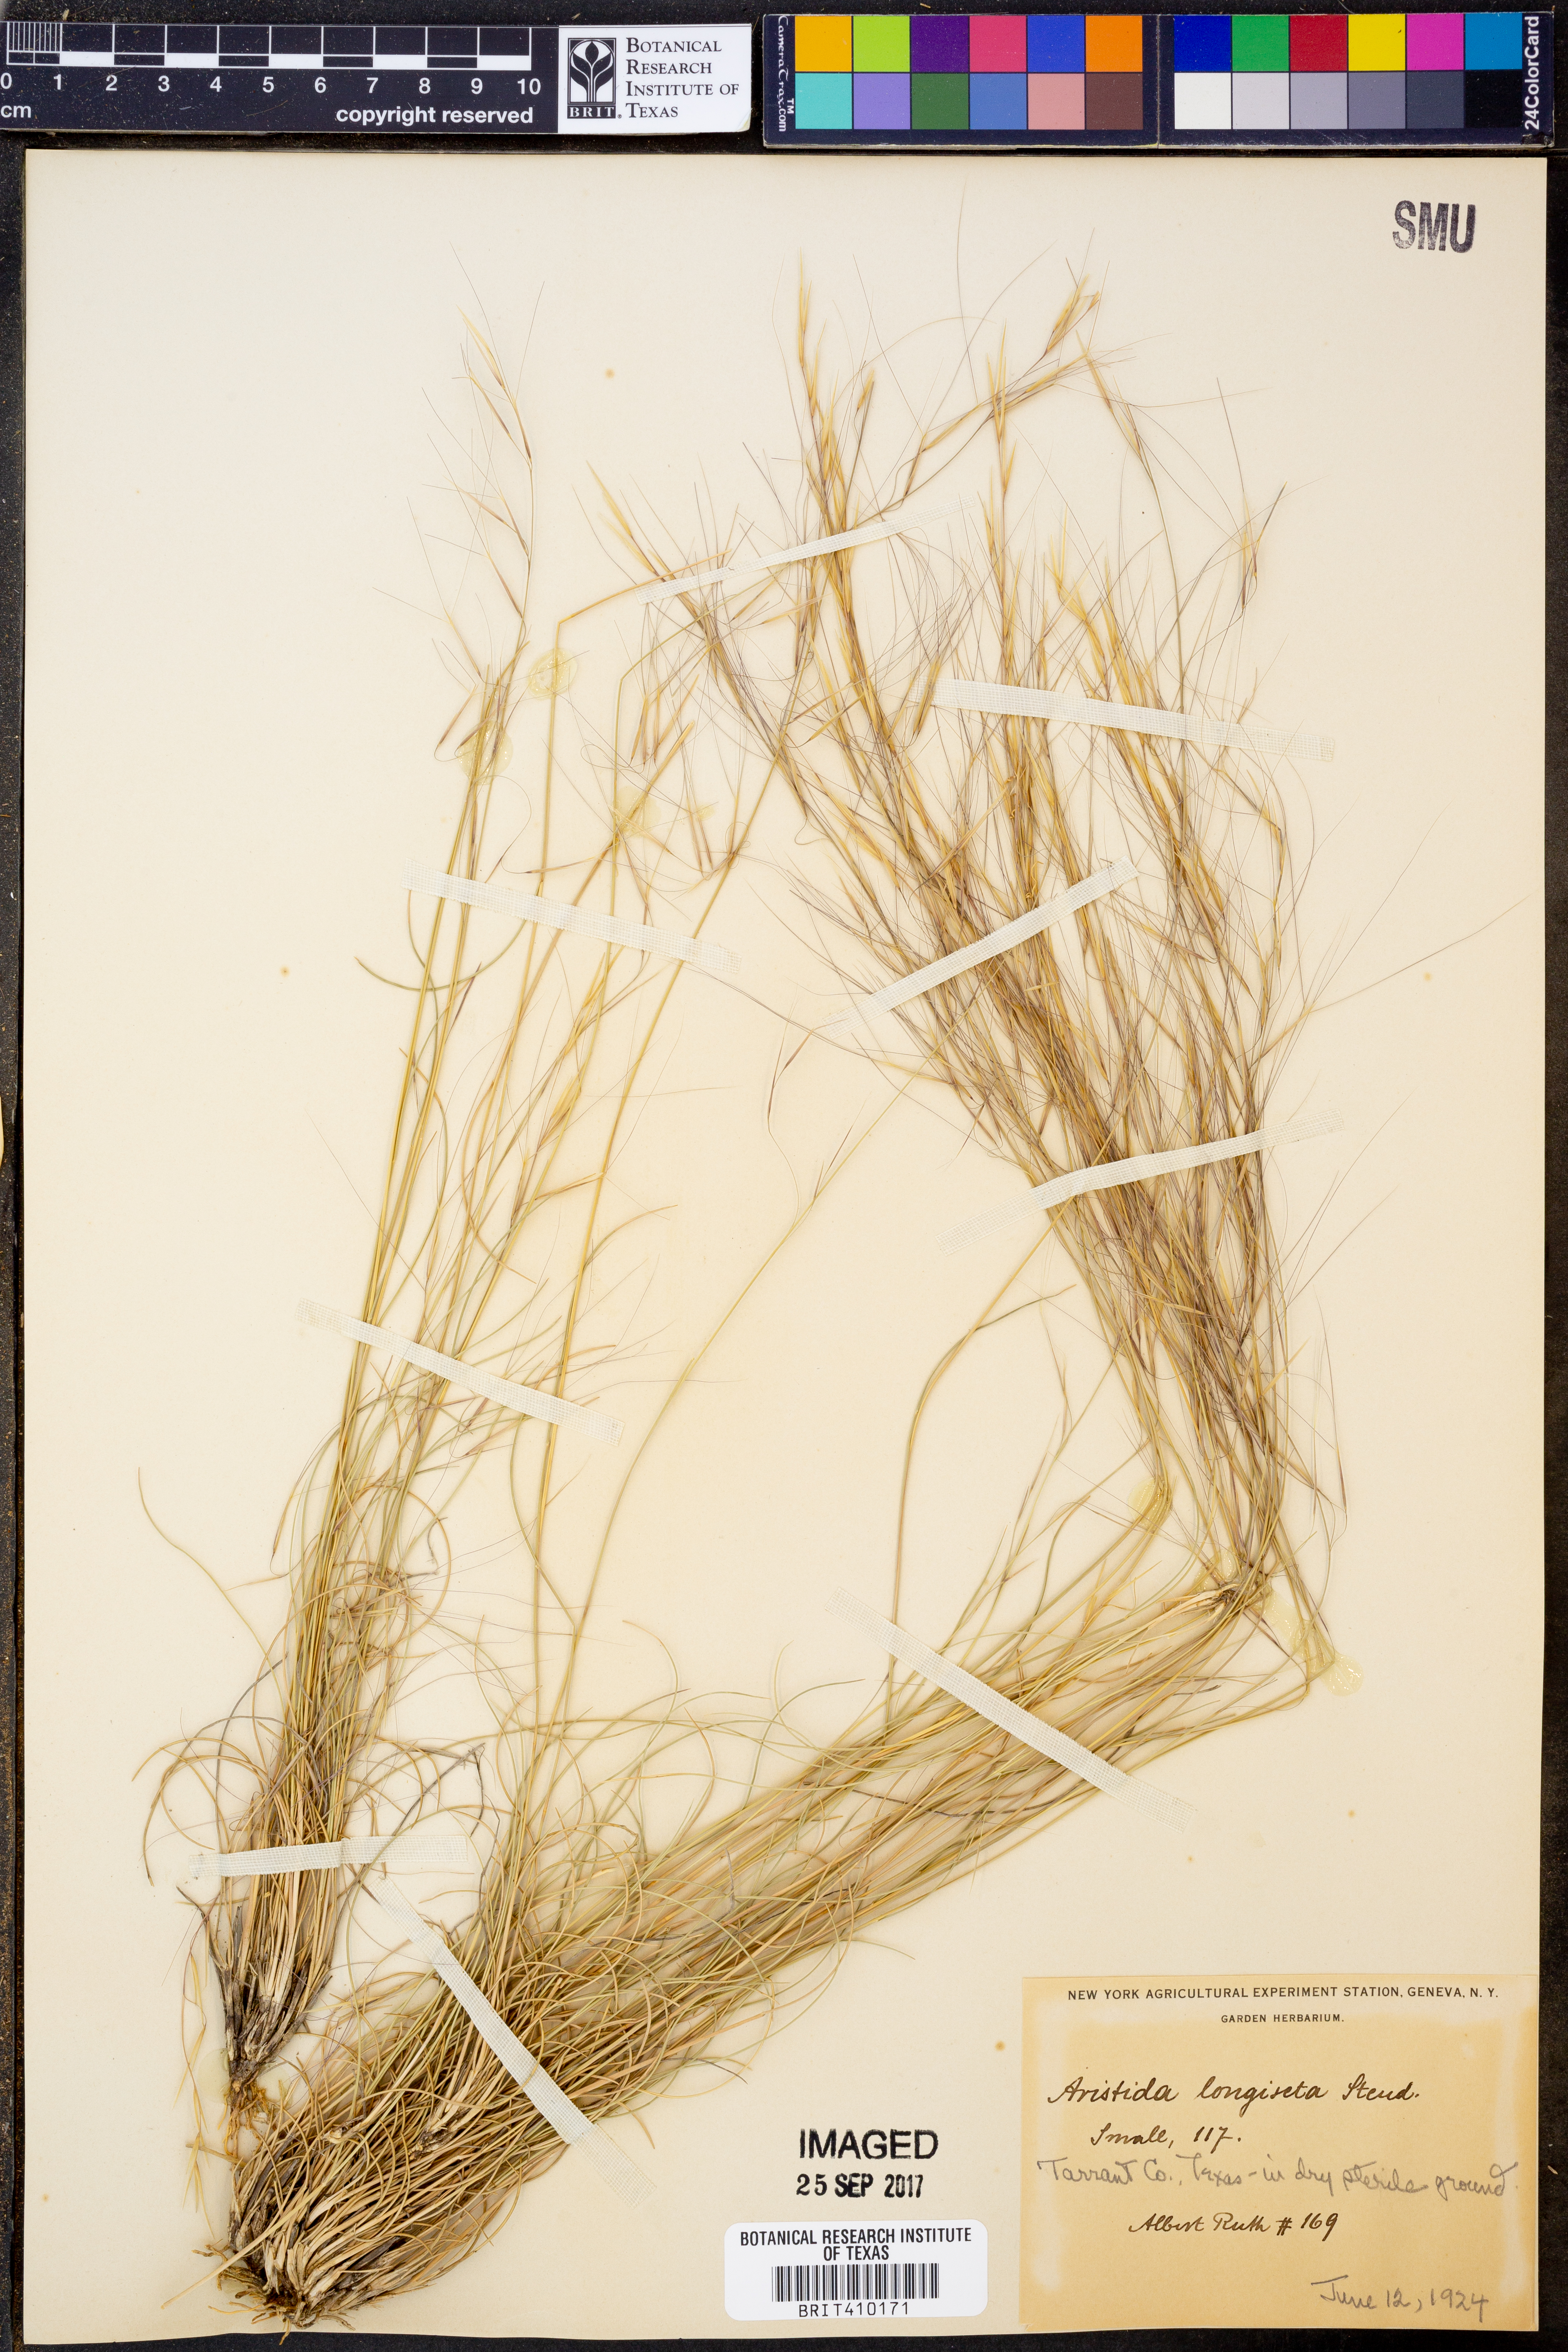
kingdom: Plantae
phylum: Tracheophyta
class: Liliopsida
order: Poales
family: Poaceae
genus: Aristida
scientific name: Aristida longiseta
